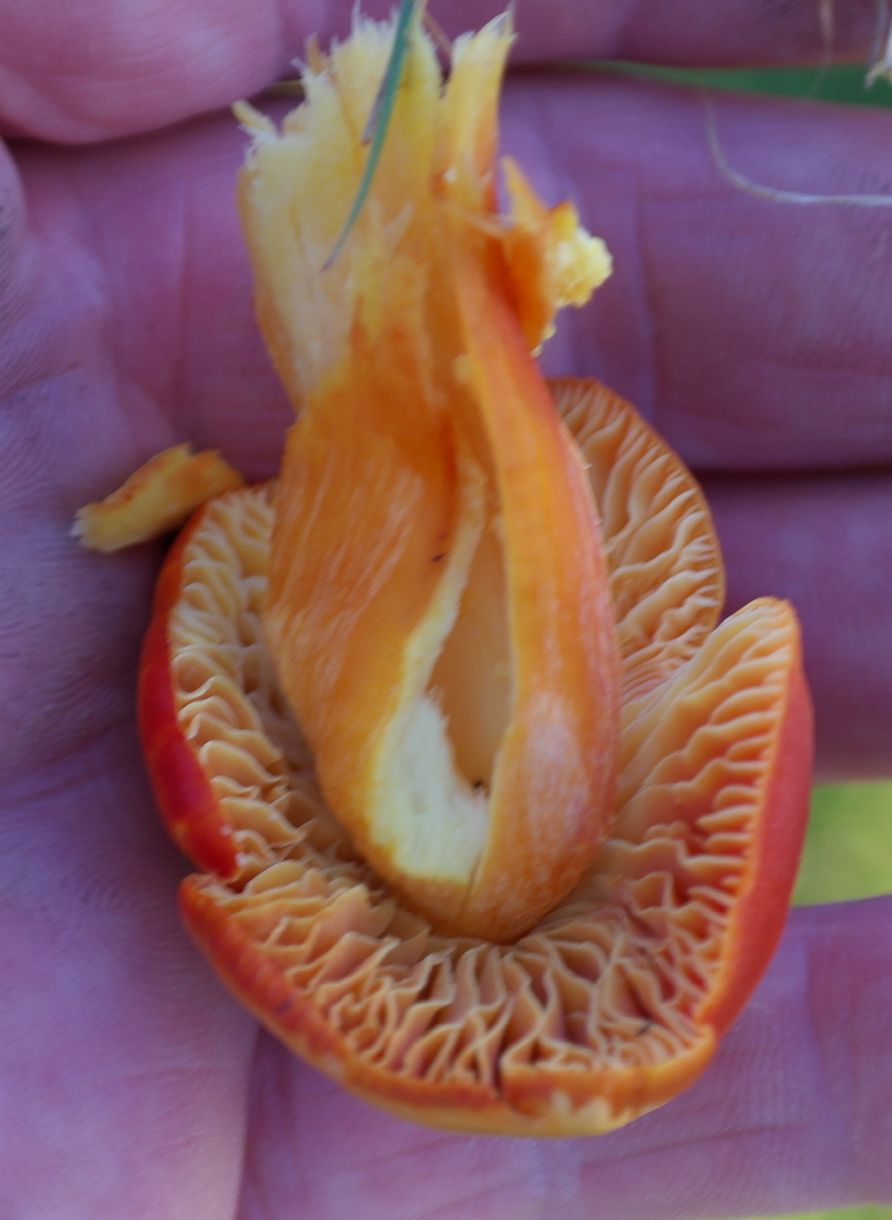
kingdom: Fungi
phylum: Basidiomycota
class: Agaricomycetes
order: Agaricales
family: Hygrophoraceae
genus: Hygrocybe
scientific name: Hygrocybe punicea
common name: skarlagen-vokshat
